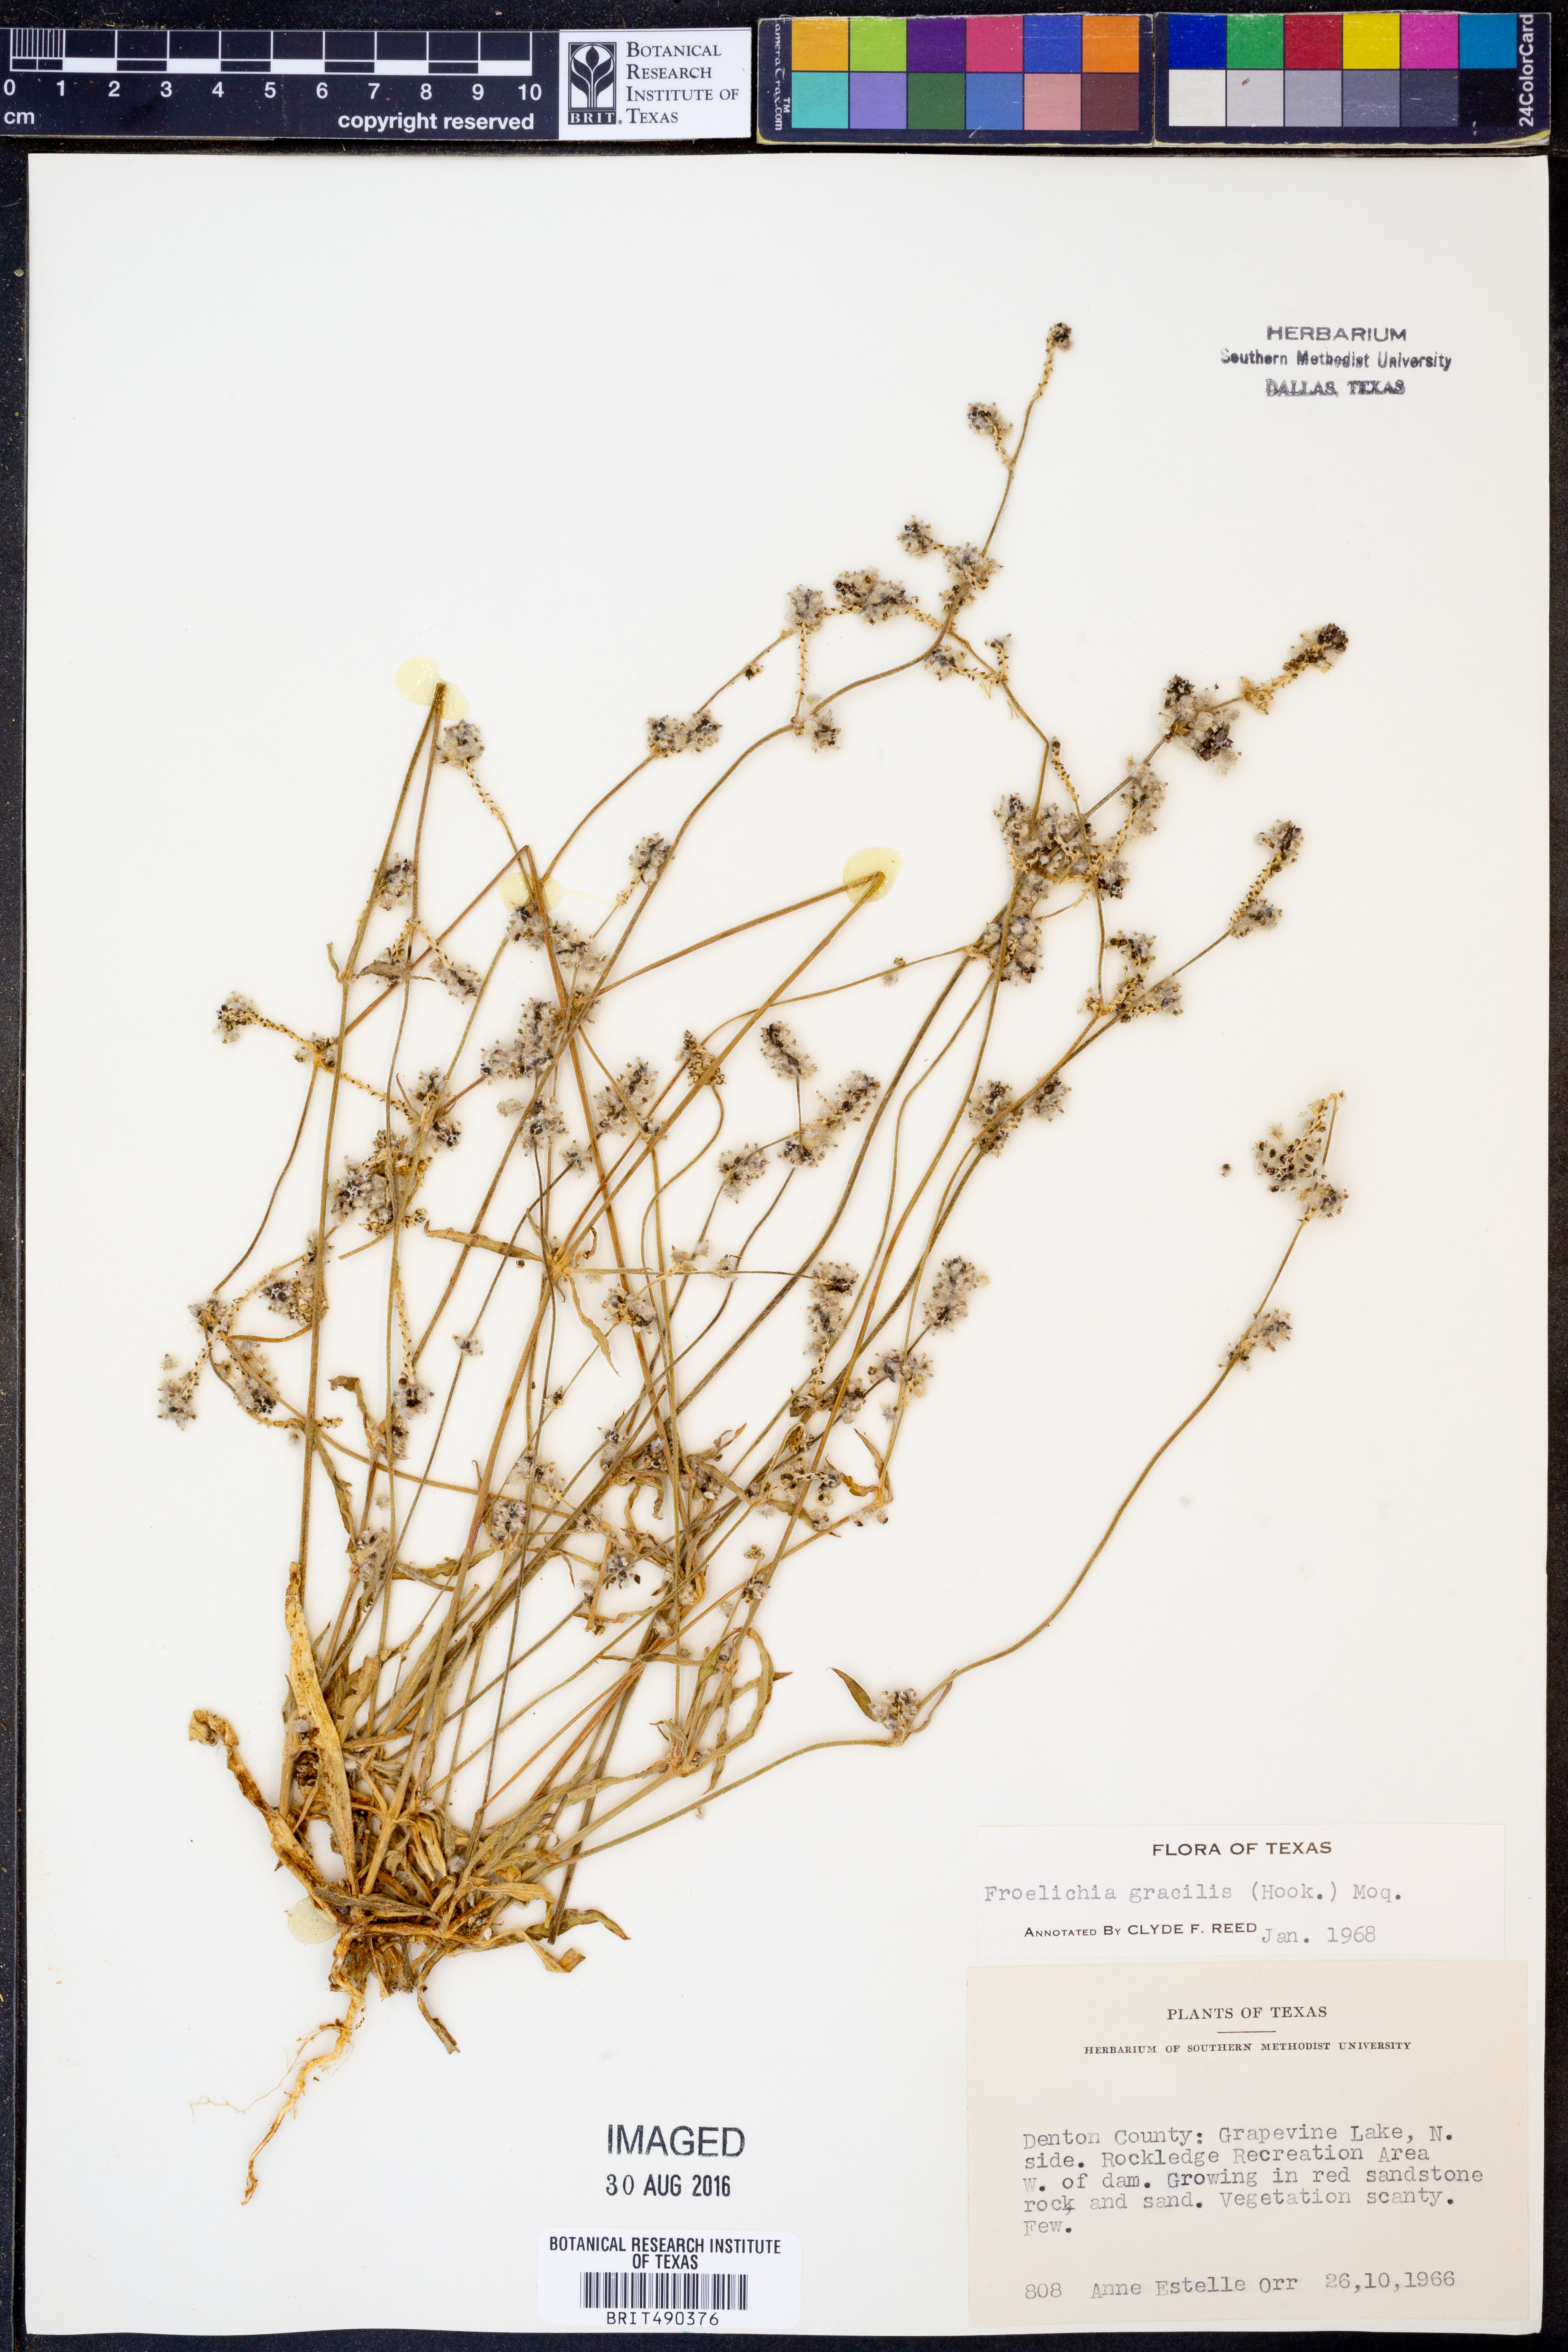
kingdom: Plantae
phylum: Tracheophyta
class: Magnoliopsida
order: Caryophyllales
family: Amaranthaceae
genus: Froelichia
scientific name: Froelichia gracilis
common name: Slender cottonweed
